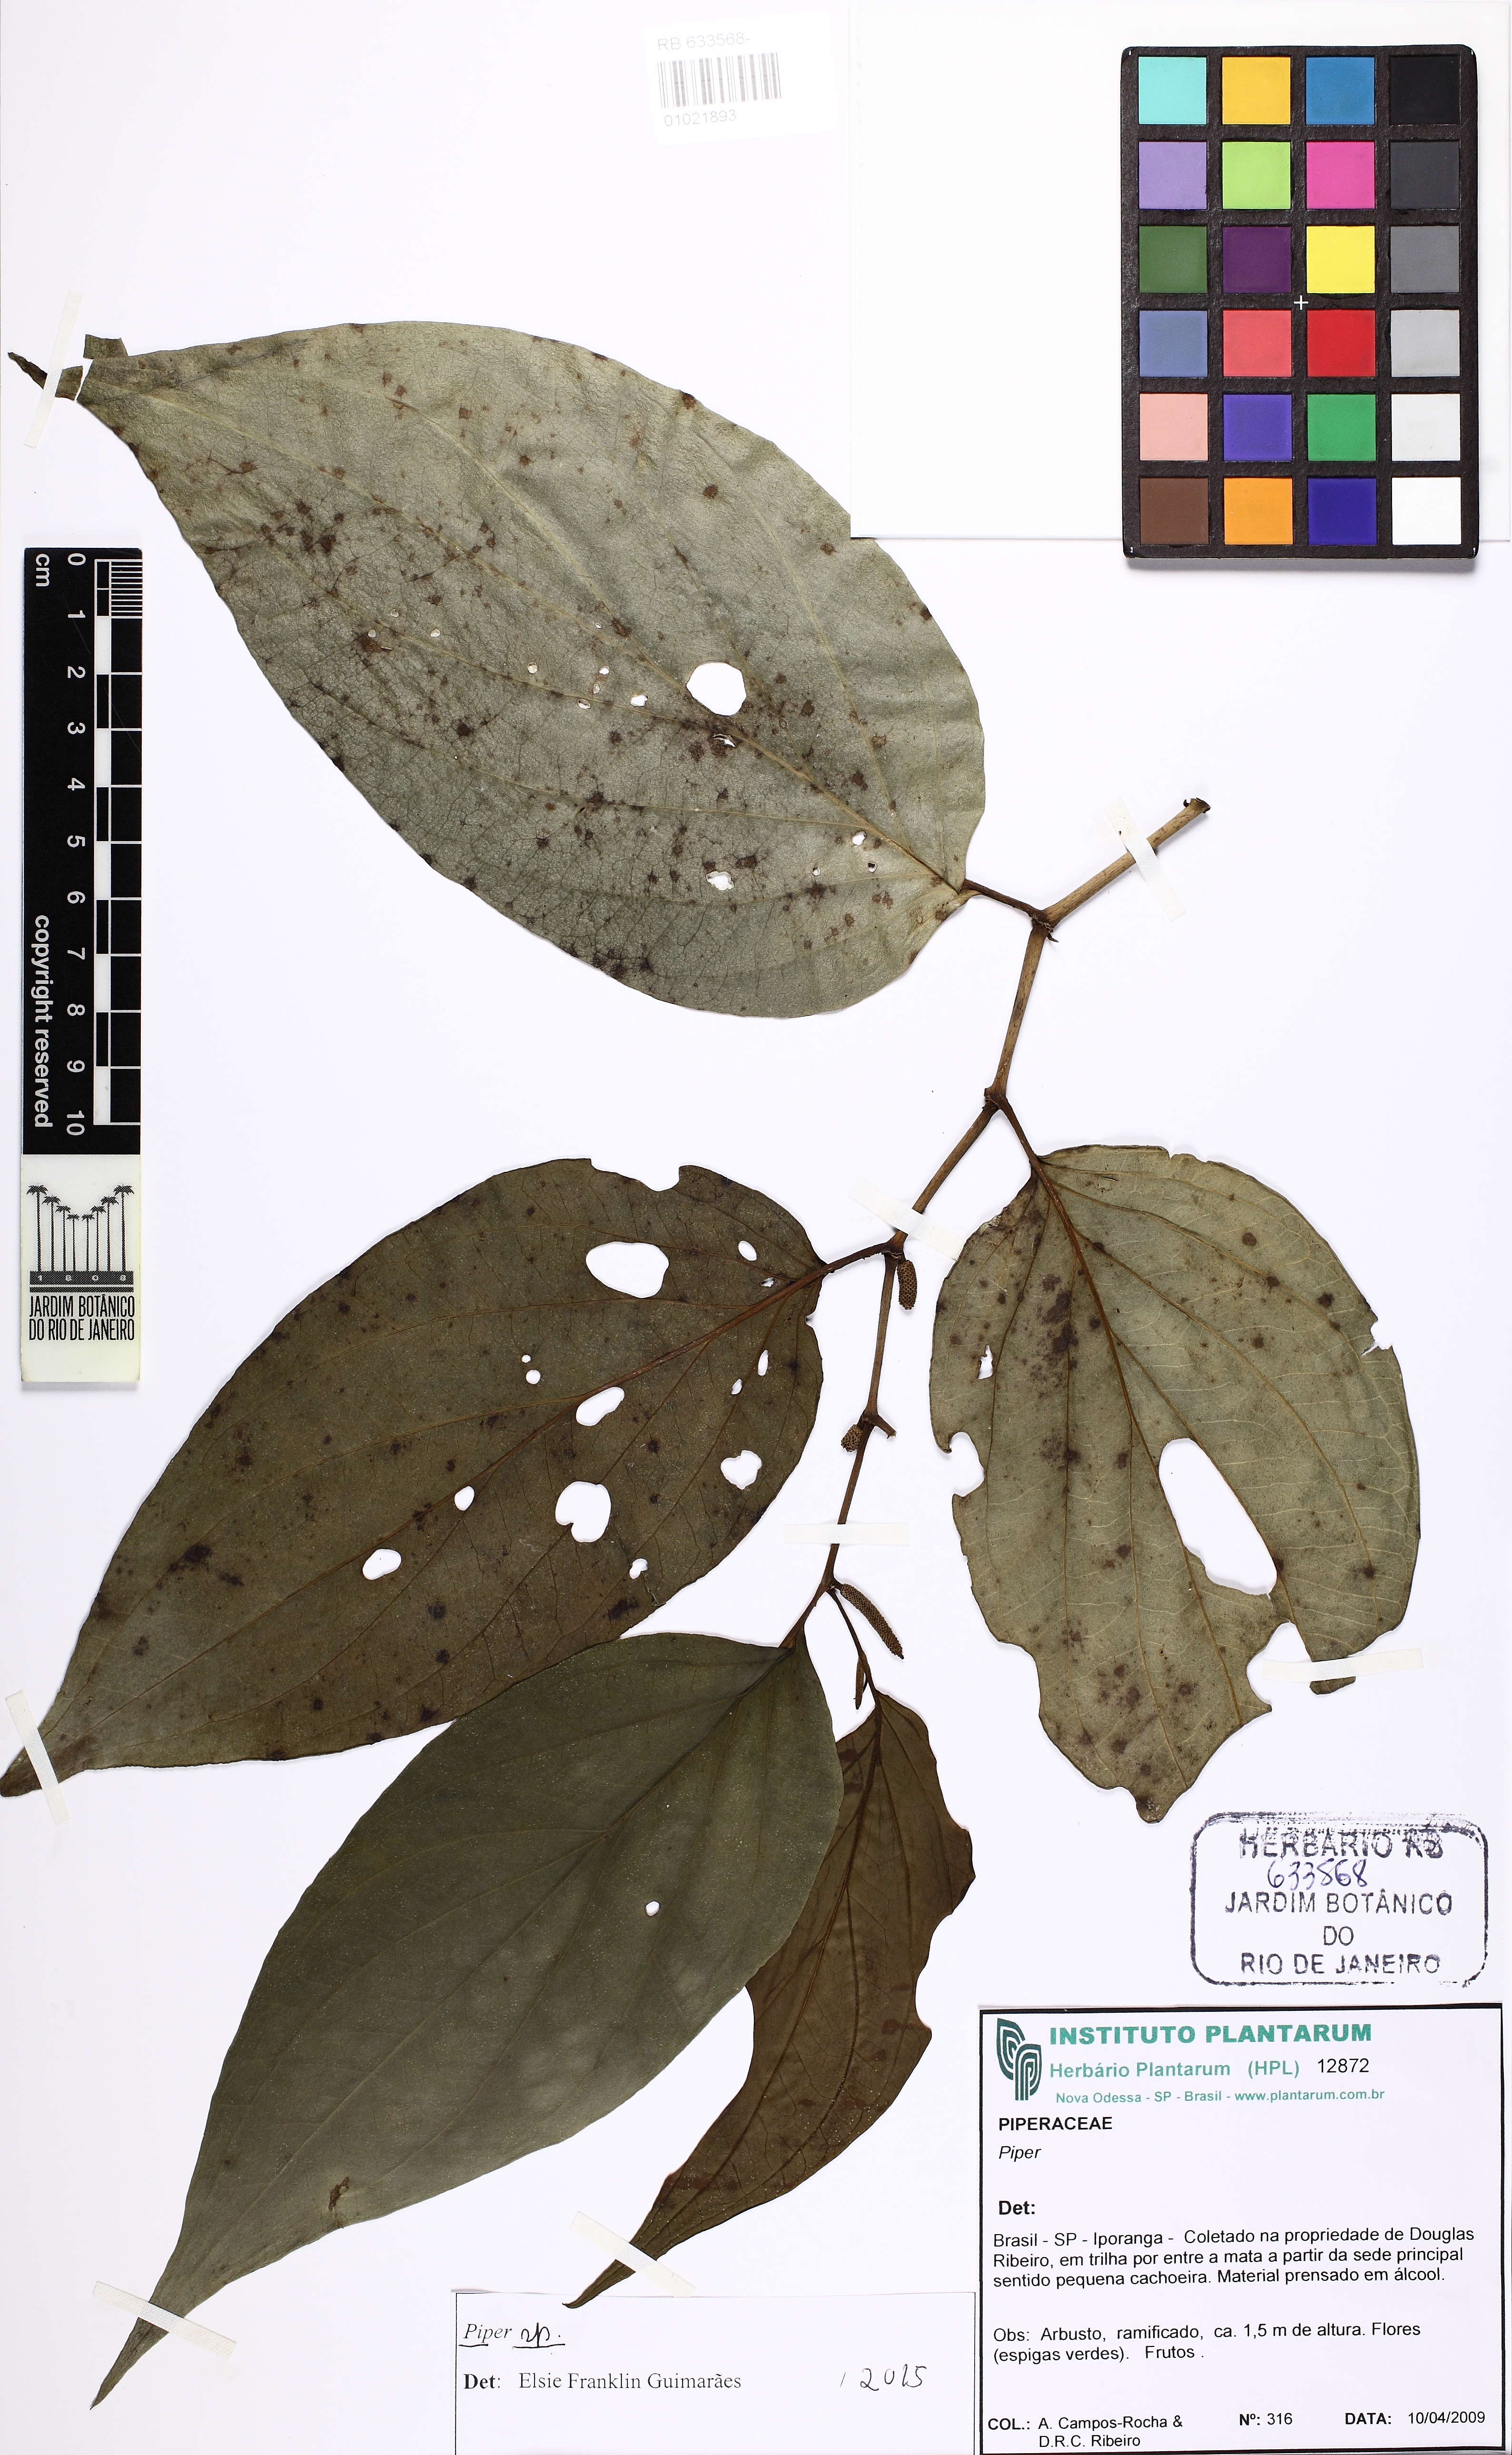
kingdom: Plantae
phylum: Tracheophyta
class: Magnoliopsida
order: Piperales
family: Piperaceae
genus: Piper
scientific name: Piper
